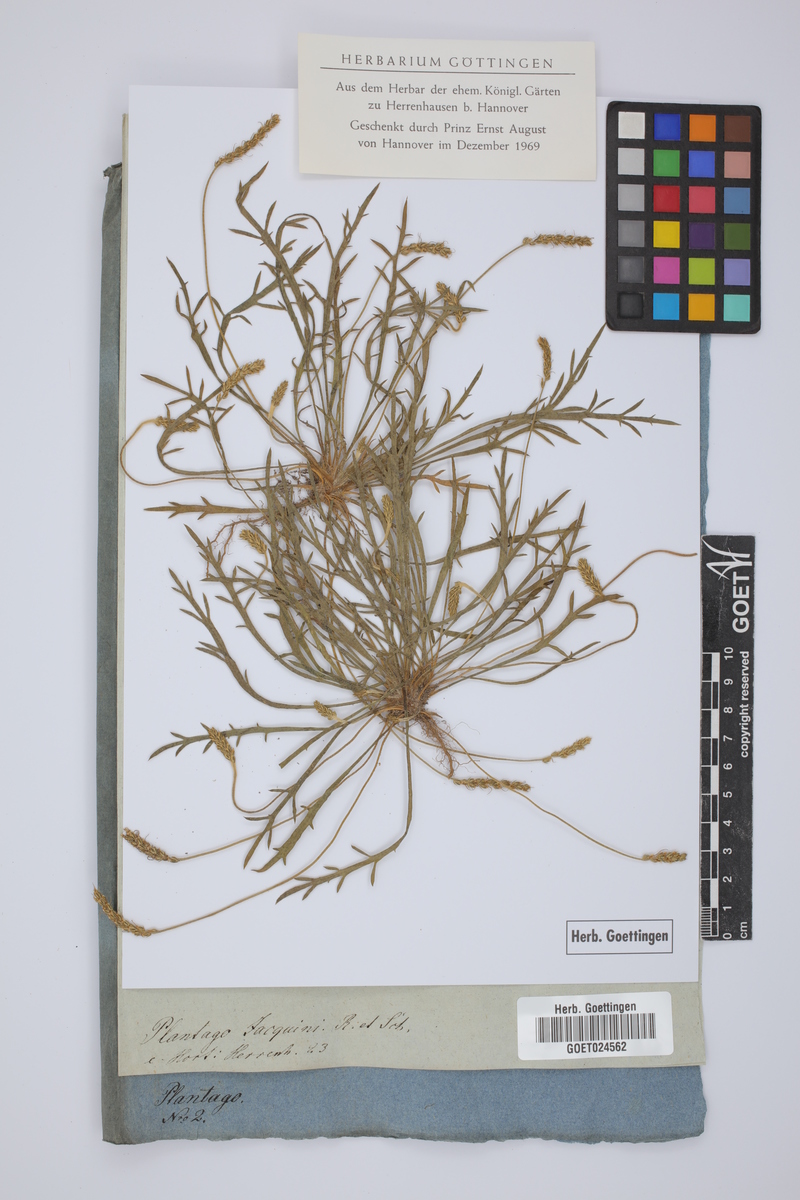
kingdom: Plantae
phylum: Tracheophyta
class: Magnoliopsida
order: Lamiales
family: Plantaginaceae
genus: Plantago
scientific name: Plantago coronopus
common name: Buck's-horn plantain
